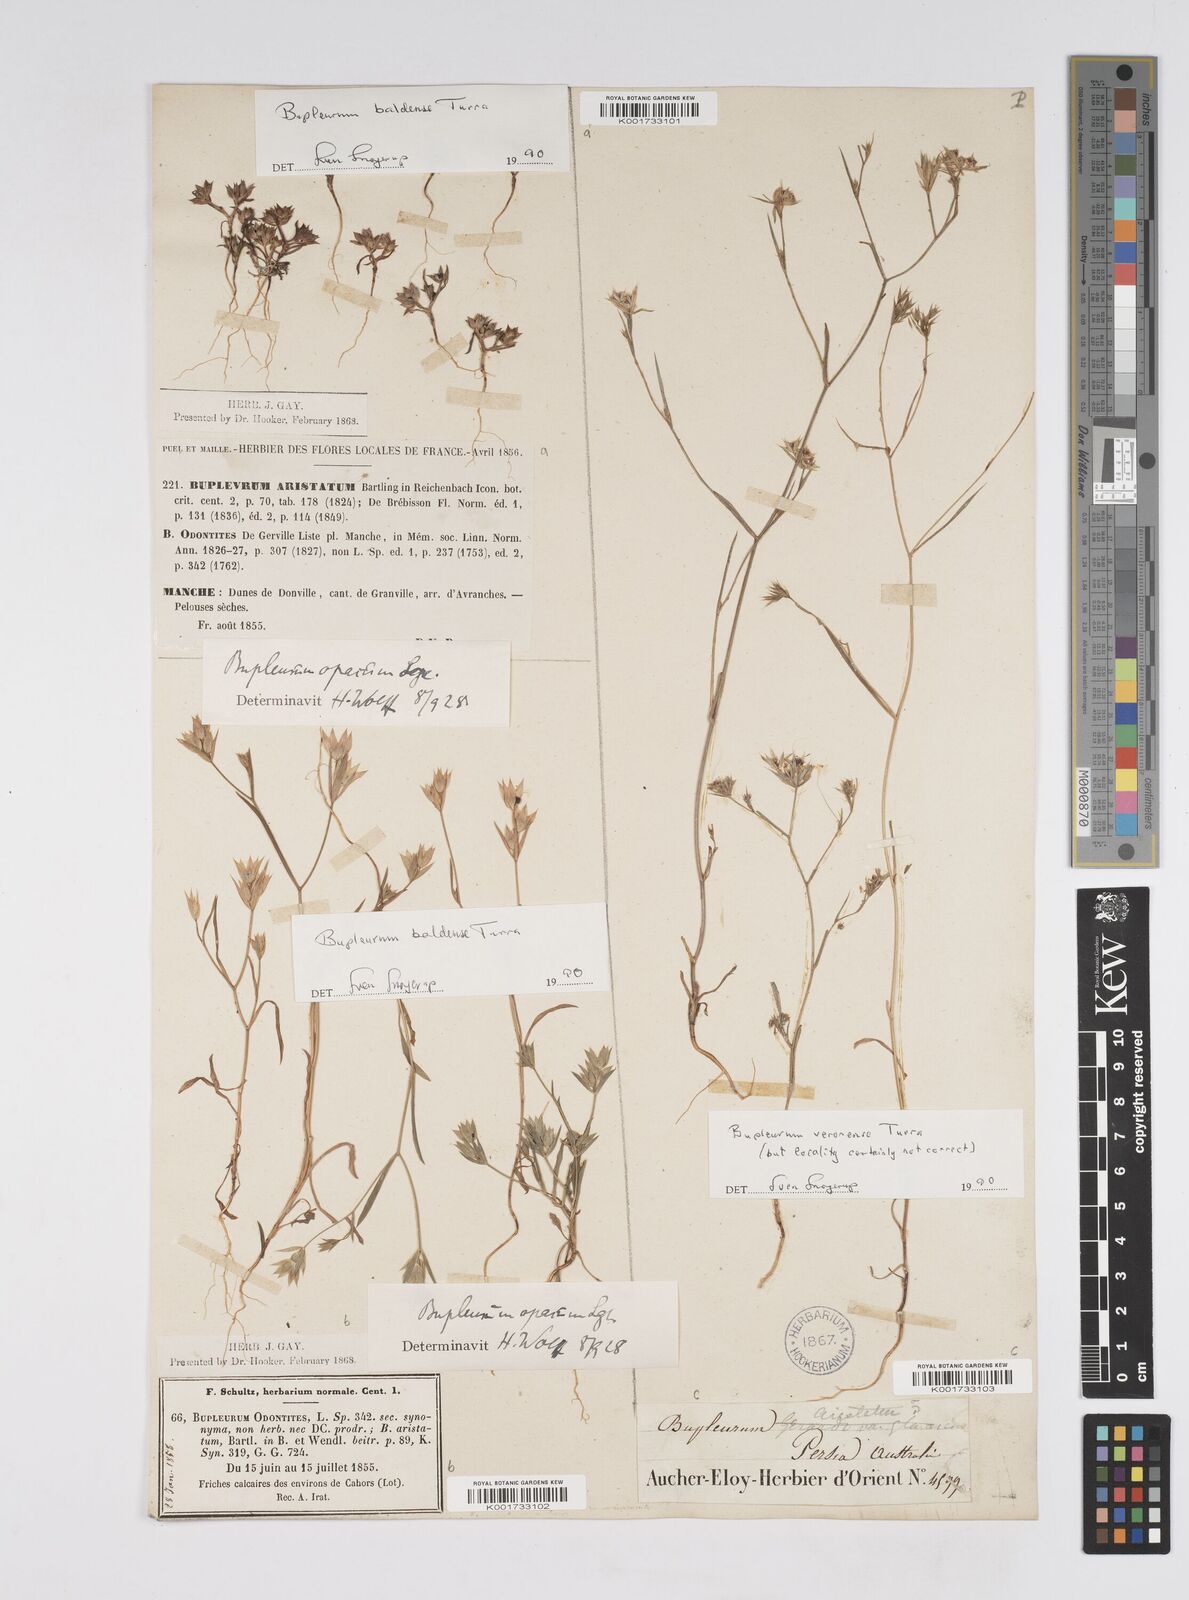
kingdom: Plantae
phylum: Tracheophyta
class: Magnoliopsida
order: Apiales
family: Apiaceae
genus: Bupleurum
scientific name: Bupleurum baldense
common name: Small hare's-ear
